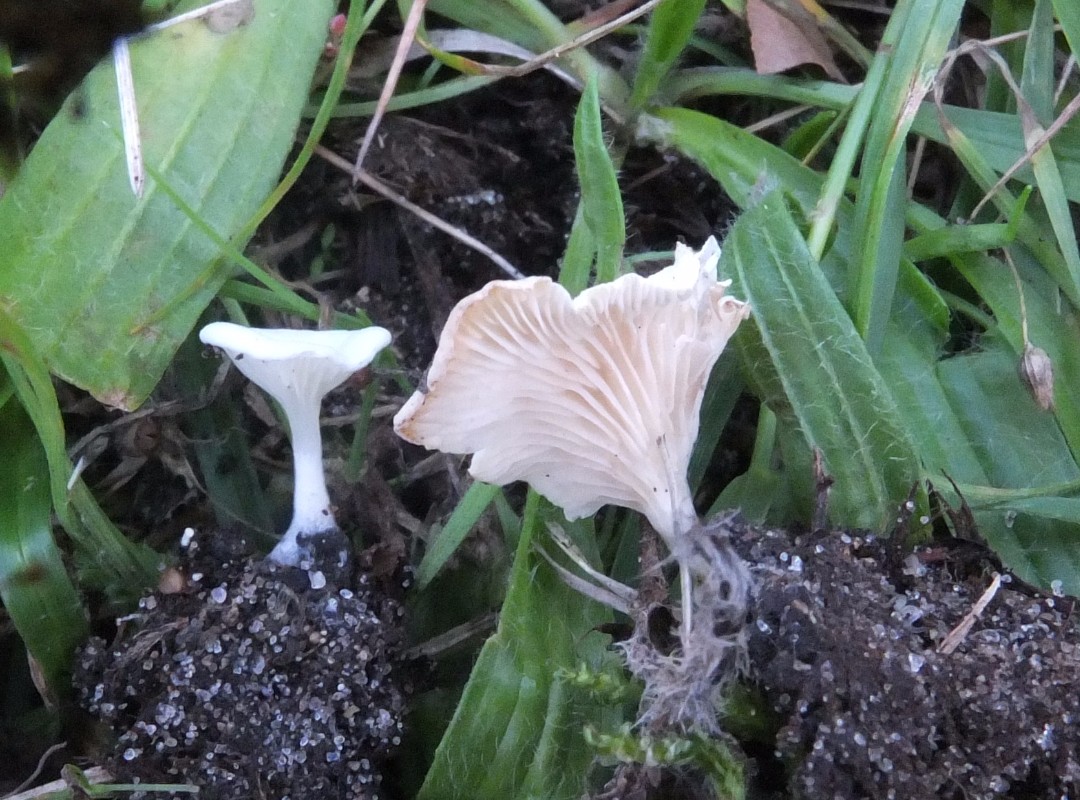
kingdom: Fungi
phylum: Basidiomycota
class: Agaricomycetes
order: Agaricales
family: Entolomataceae
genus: Clitopilus
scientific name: Clitopilus scyphoides
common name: spinkel melhat
